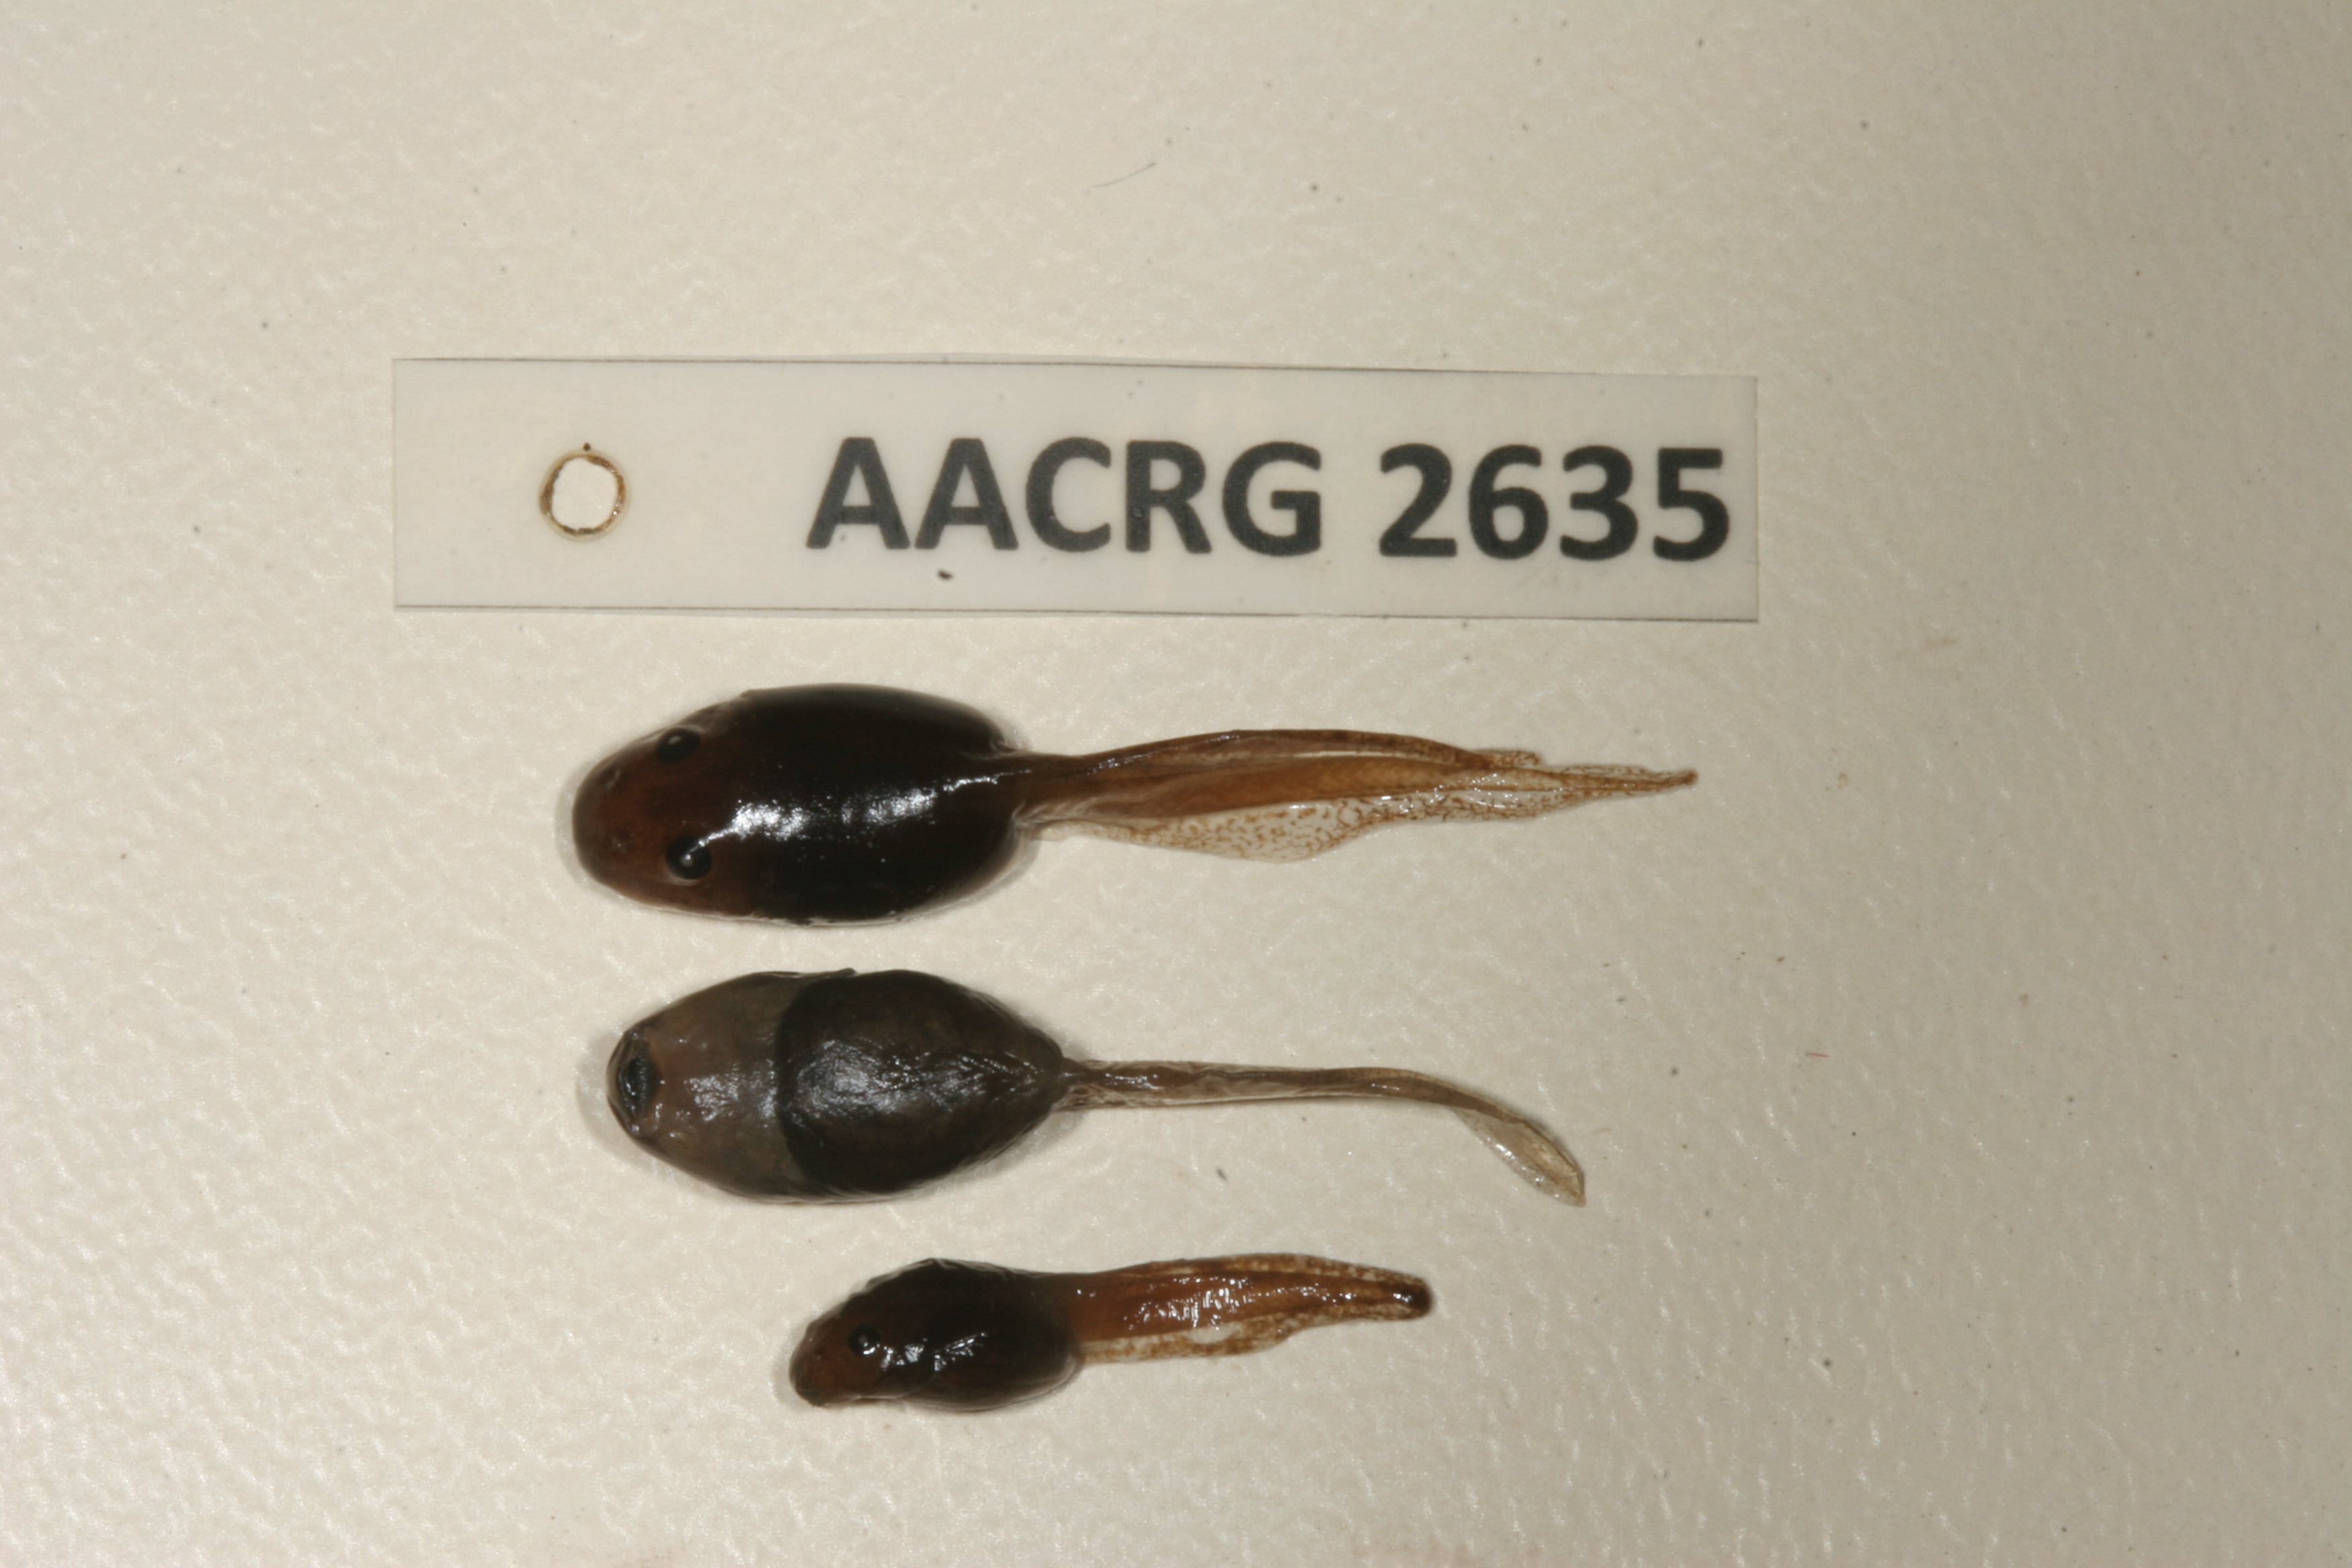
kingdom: Animalia
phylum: Chordata
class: Amphibia
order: Anura
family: Pyxicephalidae
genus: Strongylopus
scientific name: Strongylopus grayii
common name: Gray's stream frog
